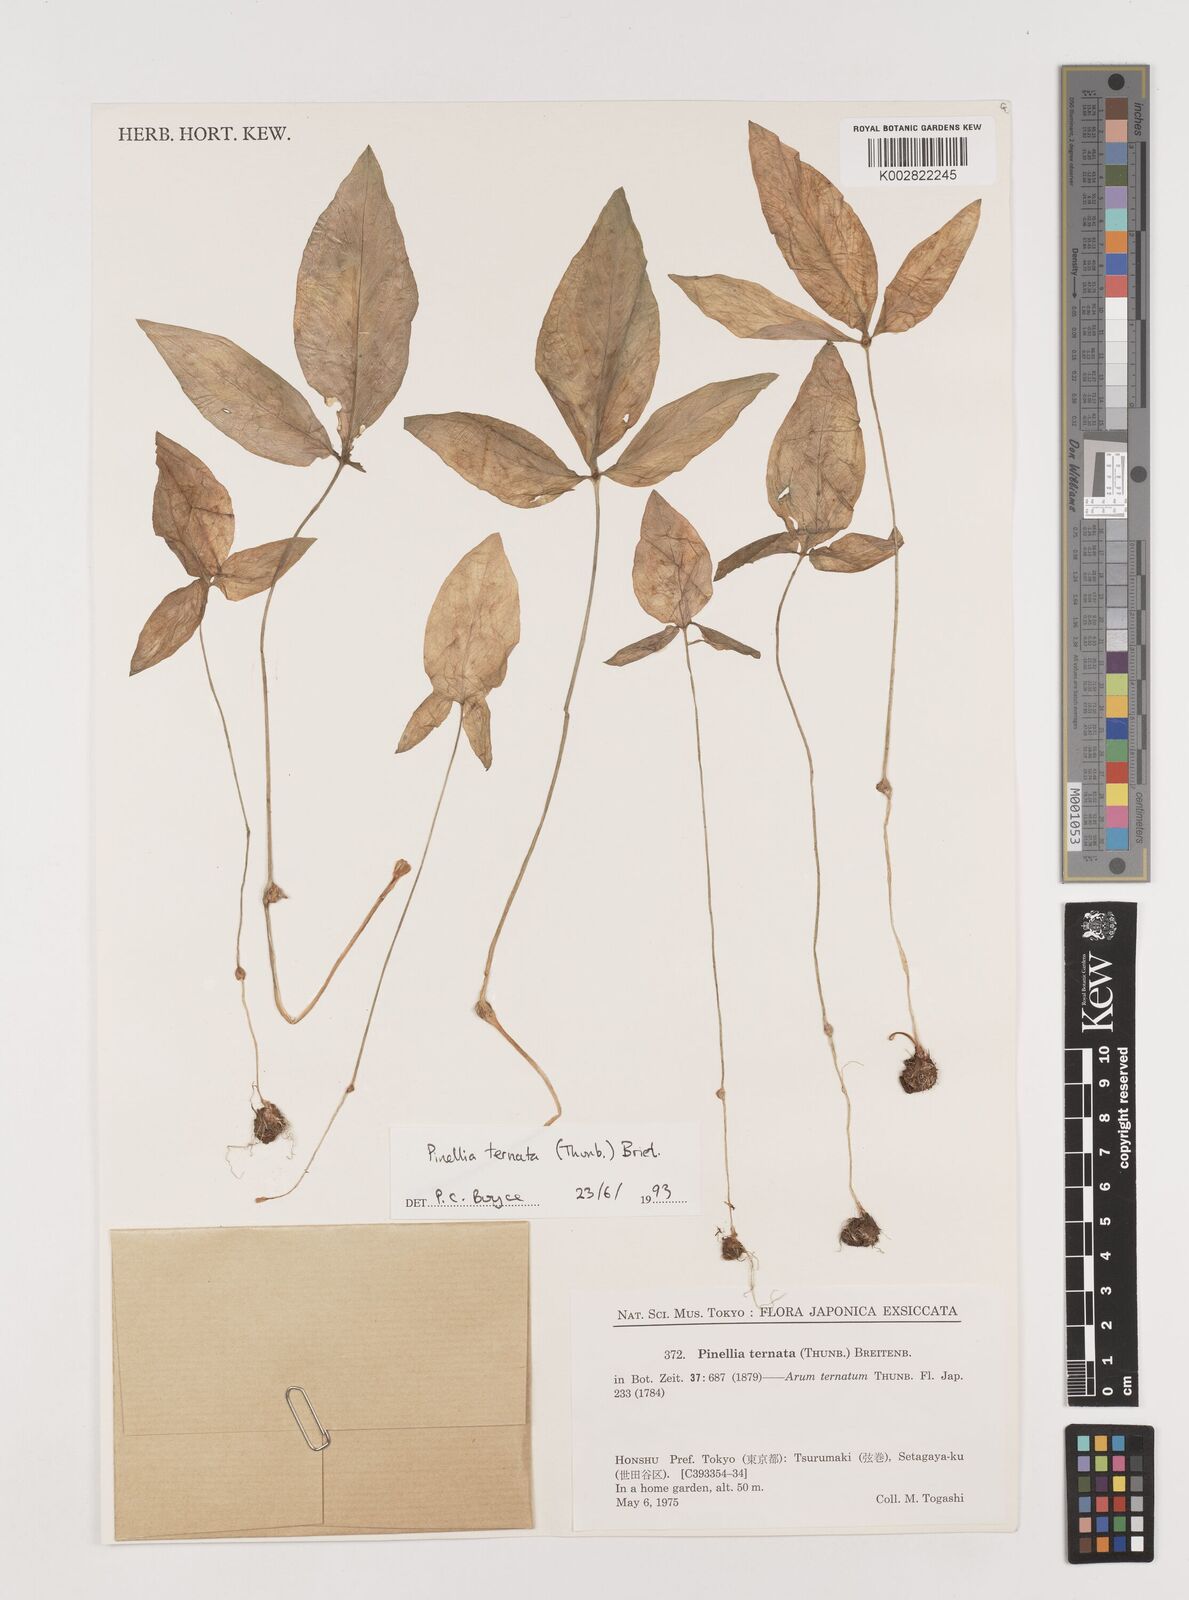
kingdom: Plantae
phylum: Tracheophyta
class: Liliopsida
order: Alismatales
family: Araceae
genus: Pinellia
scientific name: Pinellia ternata
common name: Pinellia
